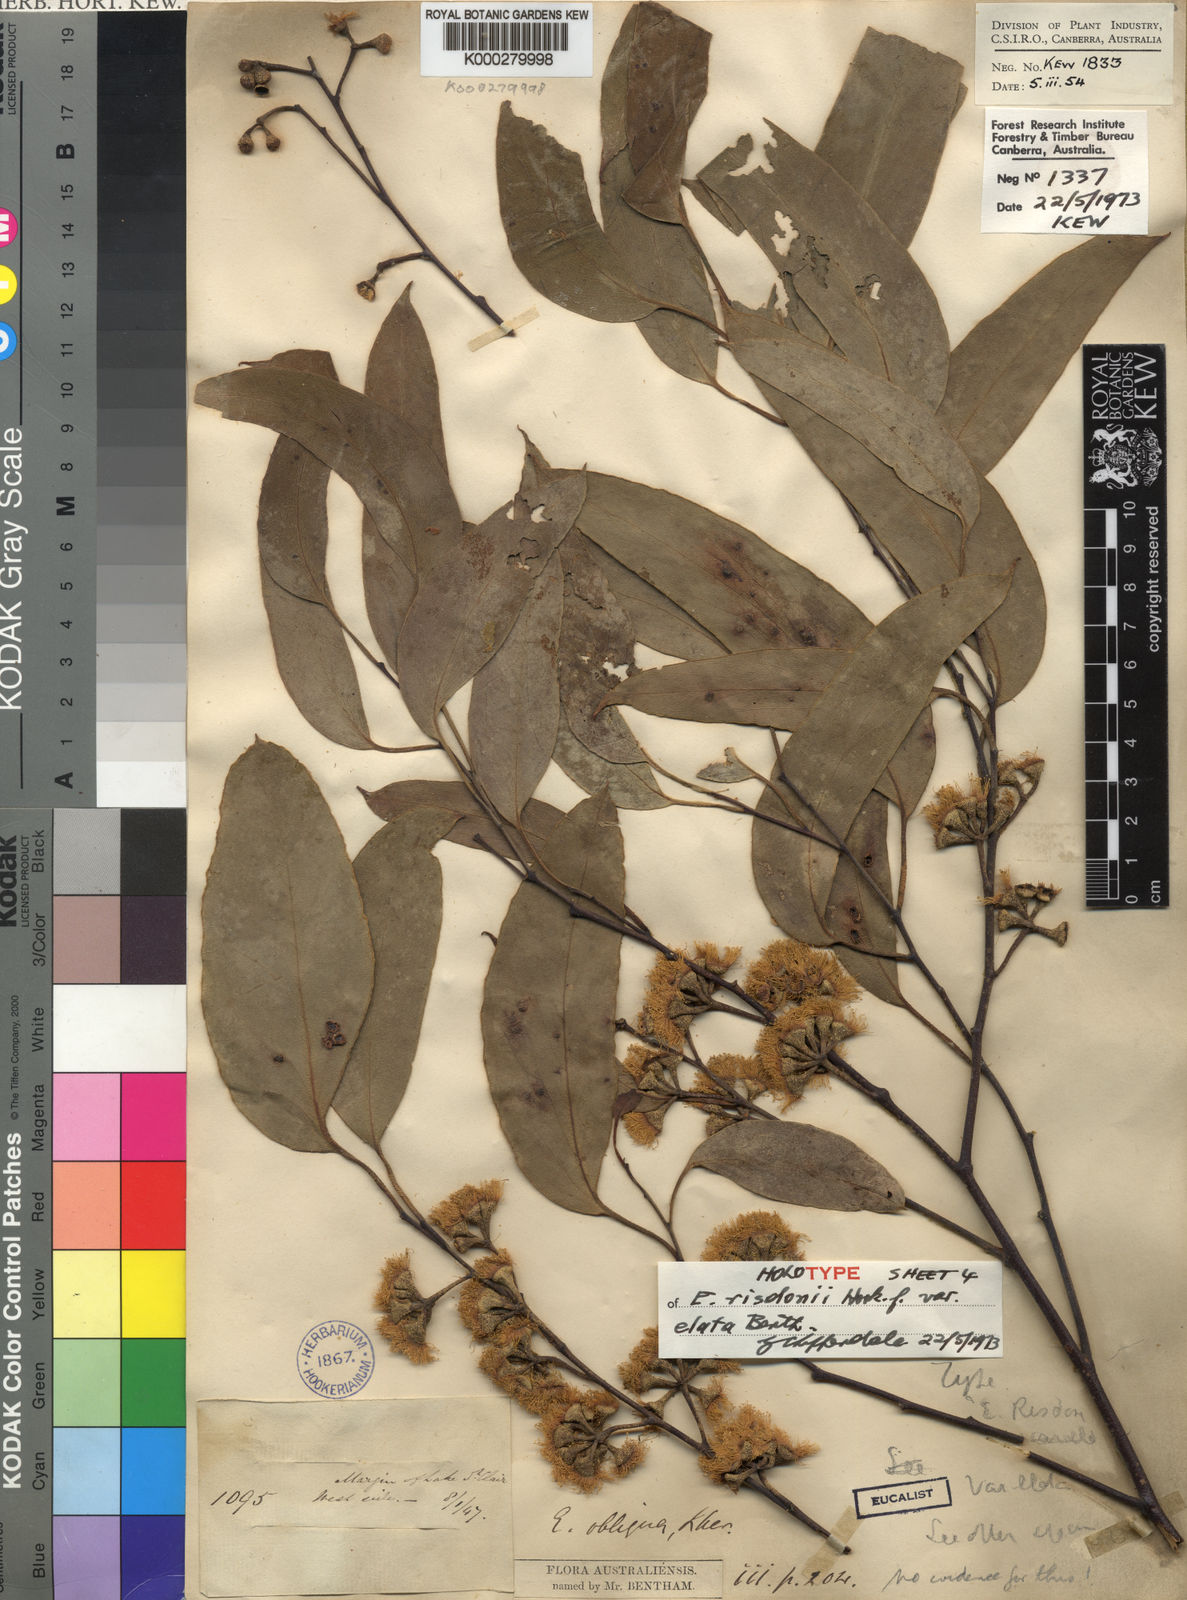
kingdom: Plantae
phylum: Tracheophyta
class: Magnoliopsida
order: Myrtales
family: Myrtaceae
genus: Eucalyptus
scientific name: Eucalyptus tenuiramis
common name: Silver peppermint
